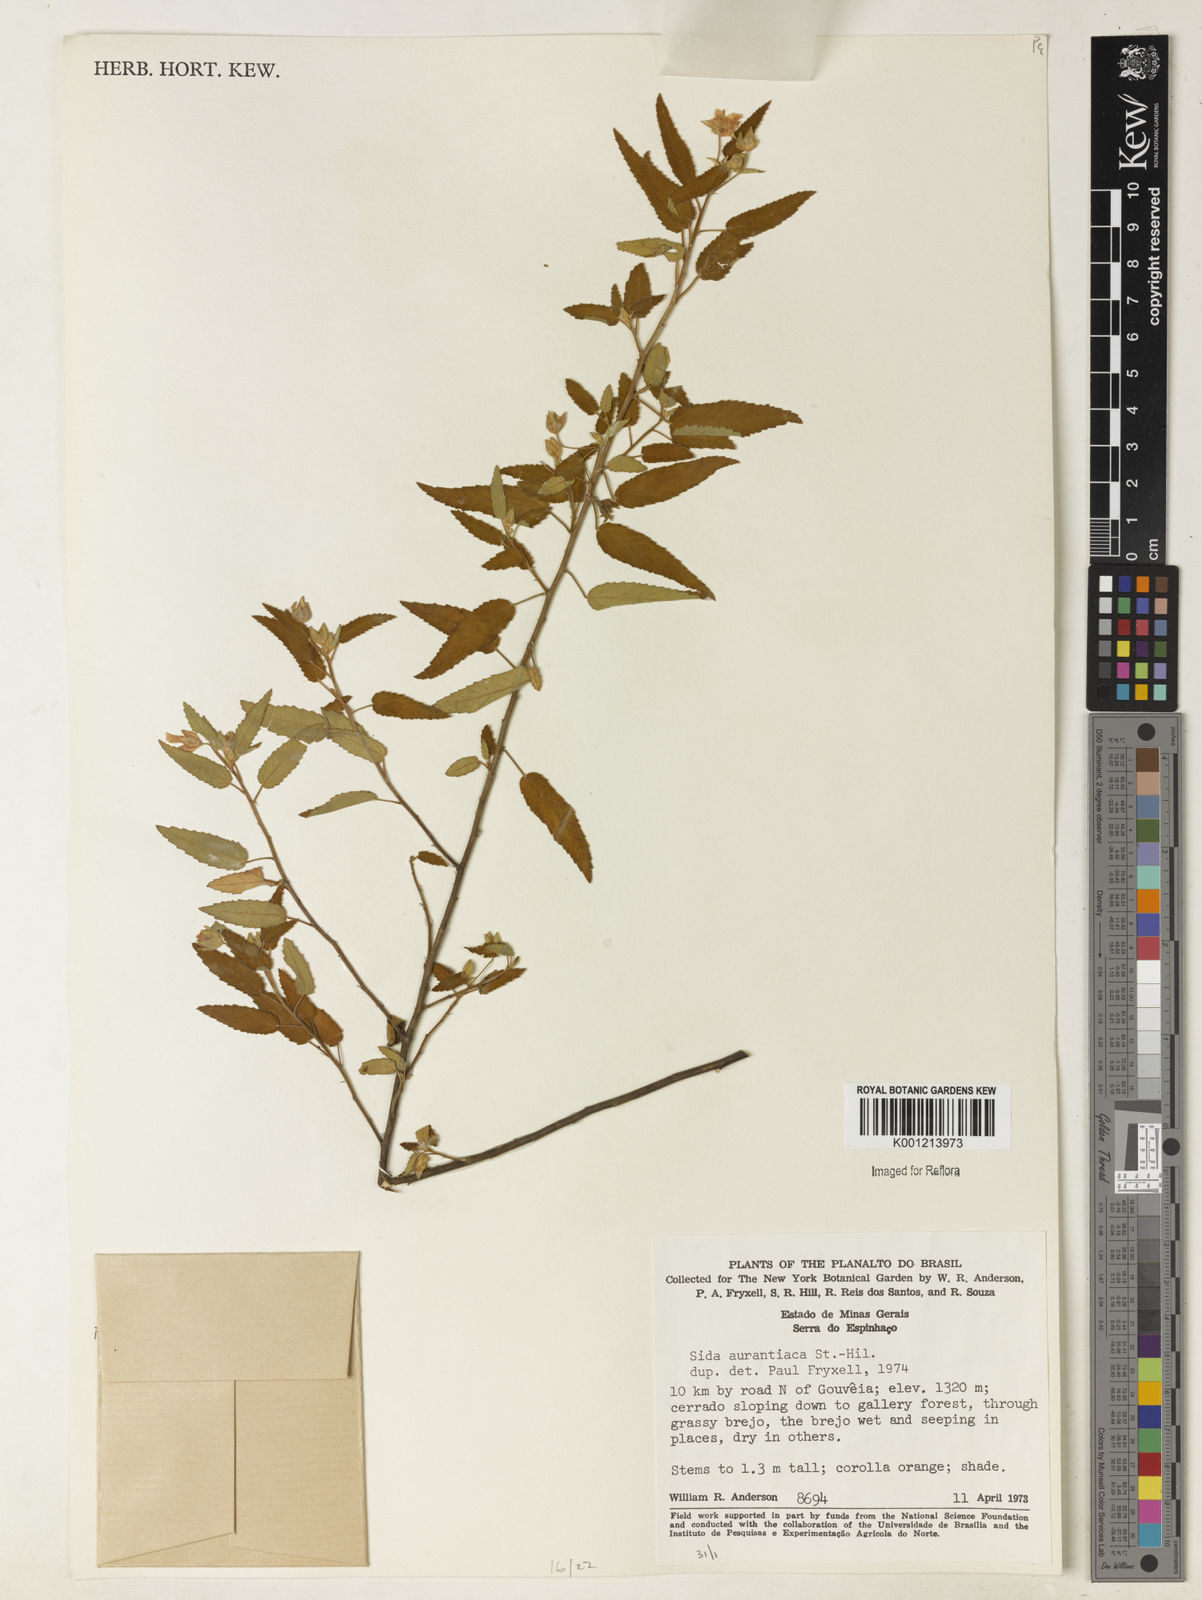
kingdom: Plantae
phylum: Tracheophyta
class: Magnoliopsida
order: Malvales
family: Malvaceae
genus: Sida
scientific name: Sida aurantiaca
